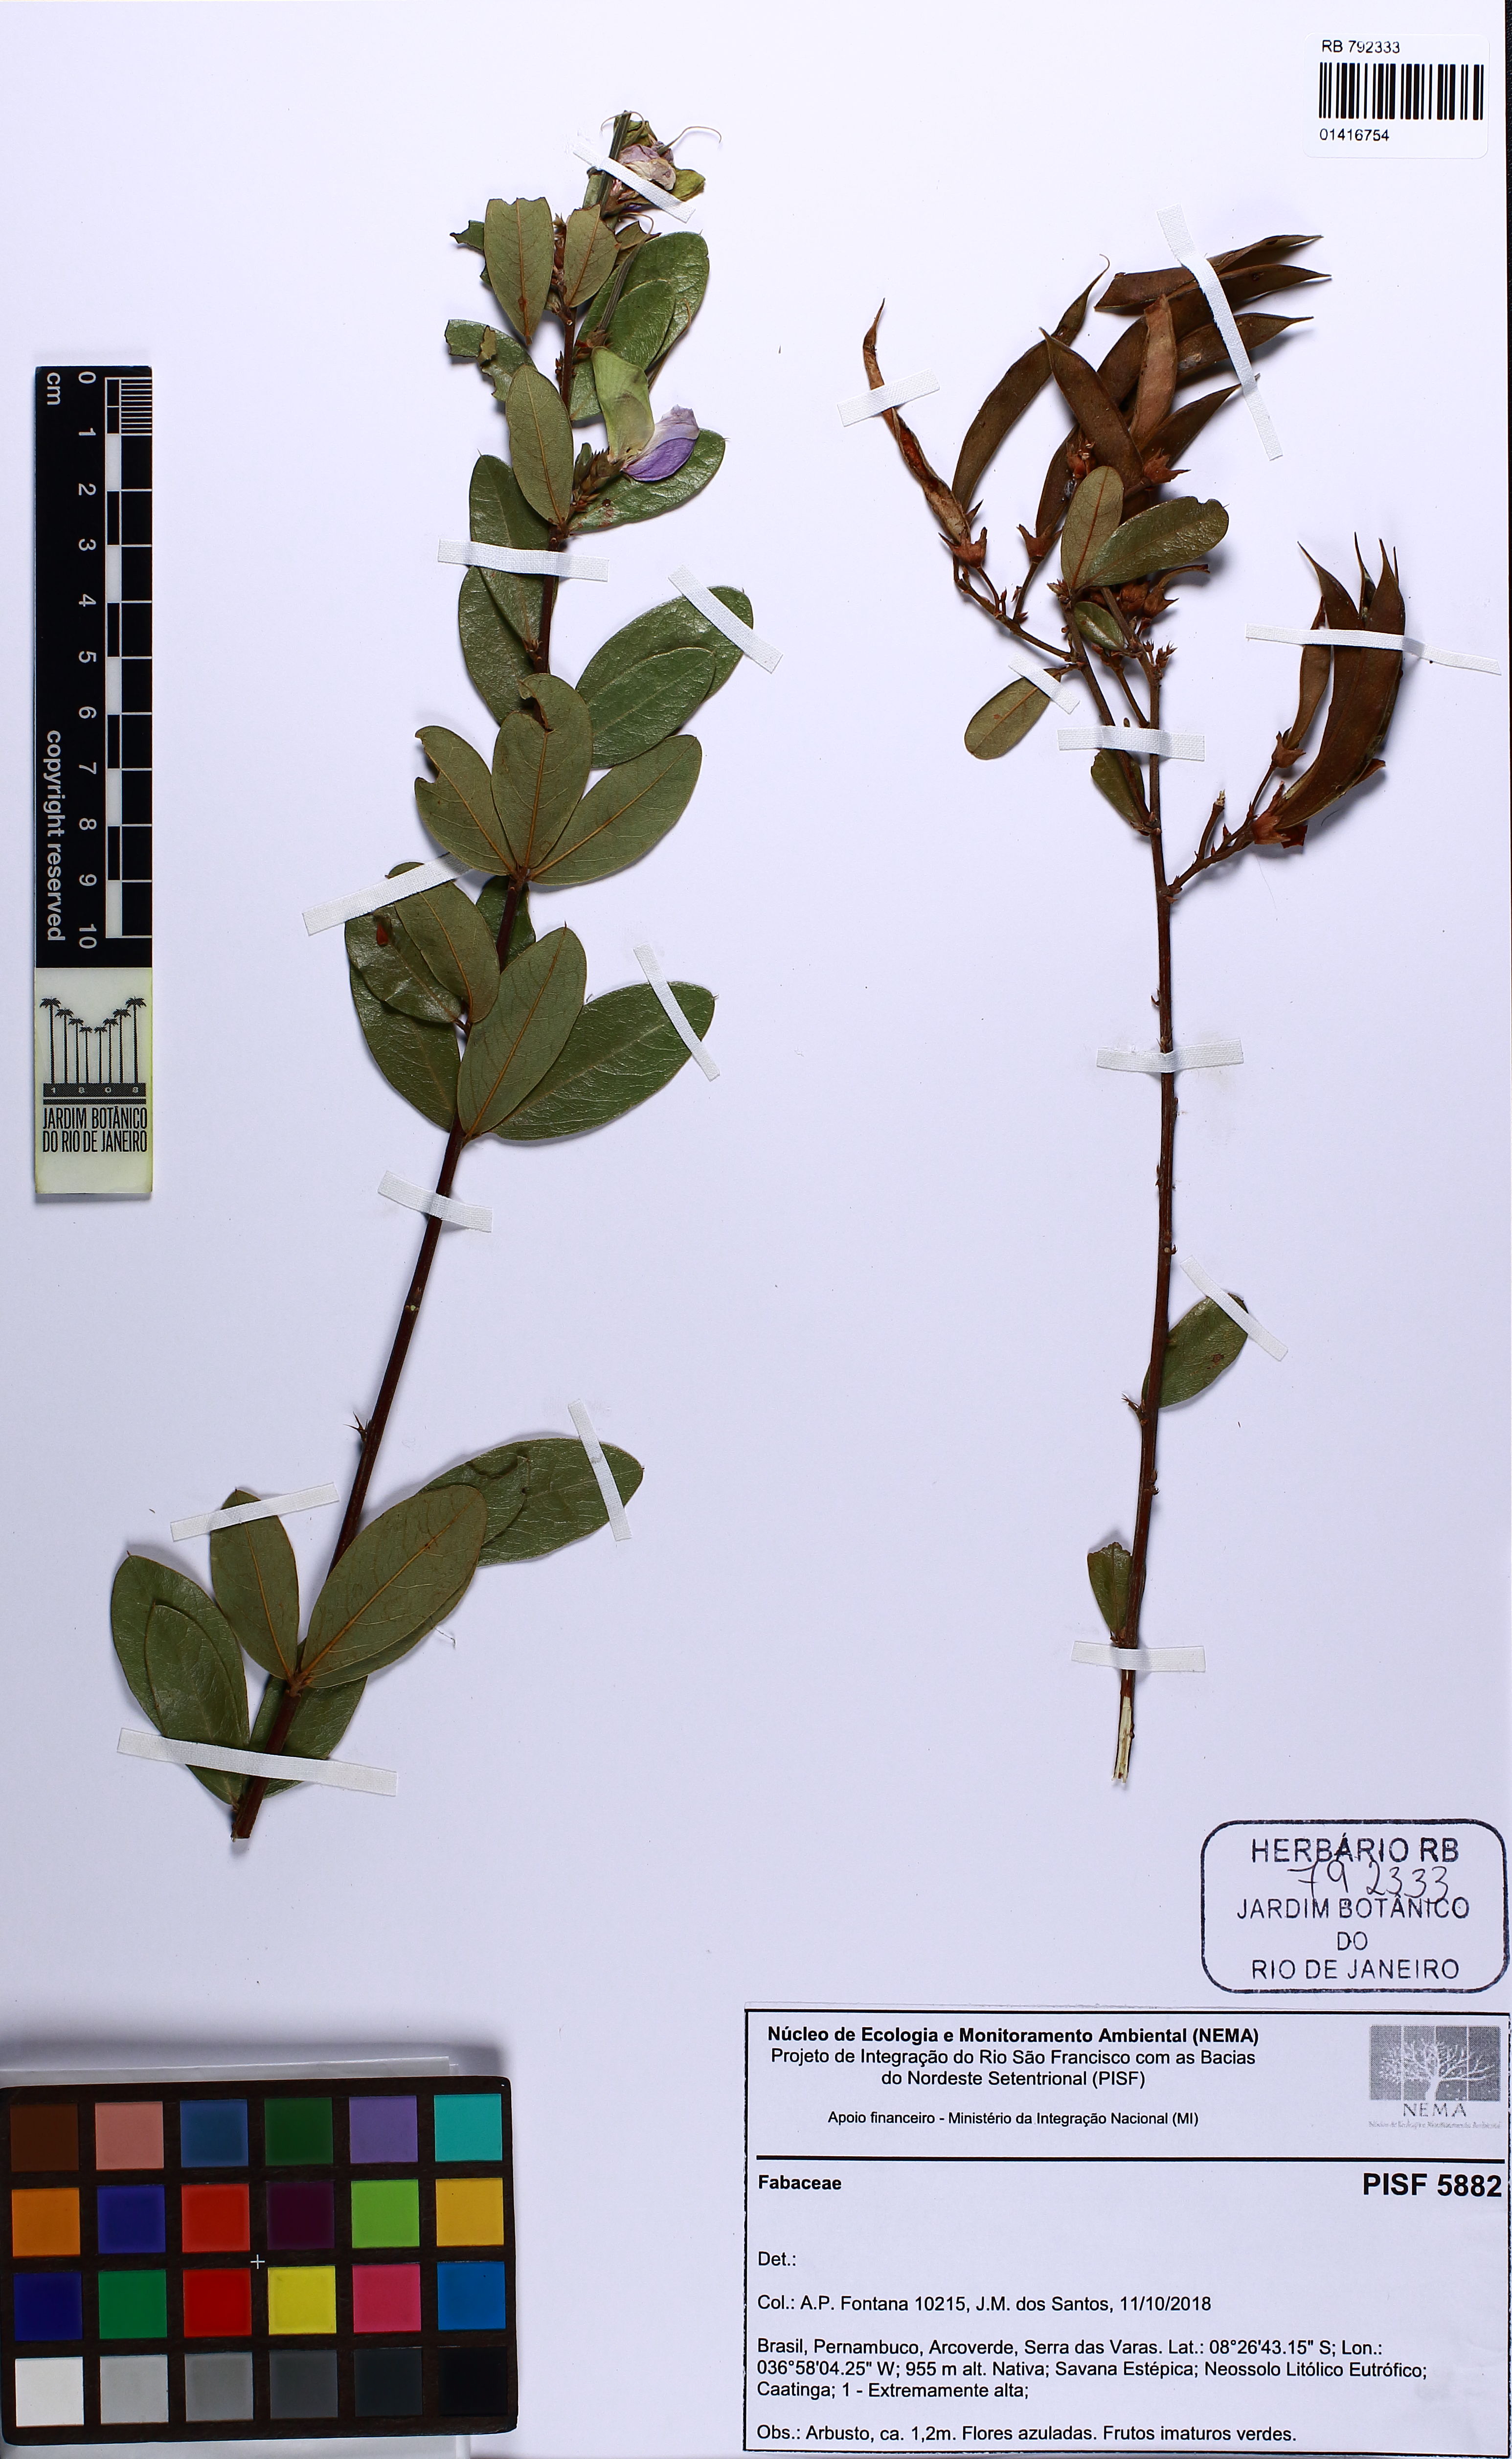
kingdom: Plantae
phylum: Tracheophyta
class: Magnoliopsida
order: Fabales
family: Fabaceae
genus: Periandra
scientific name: Periandra mediterranea
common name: Brazilian licorice
